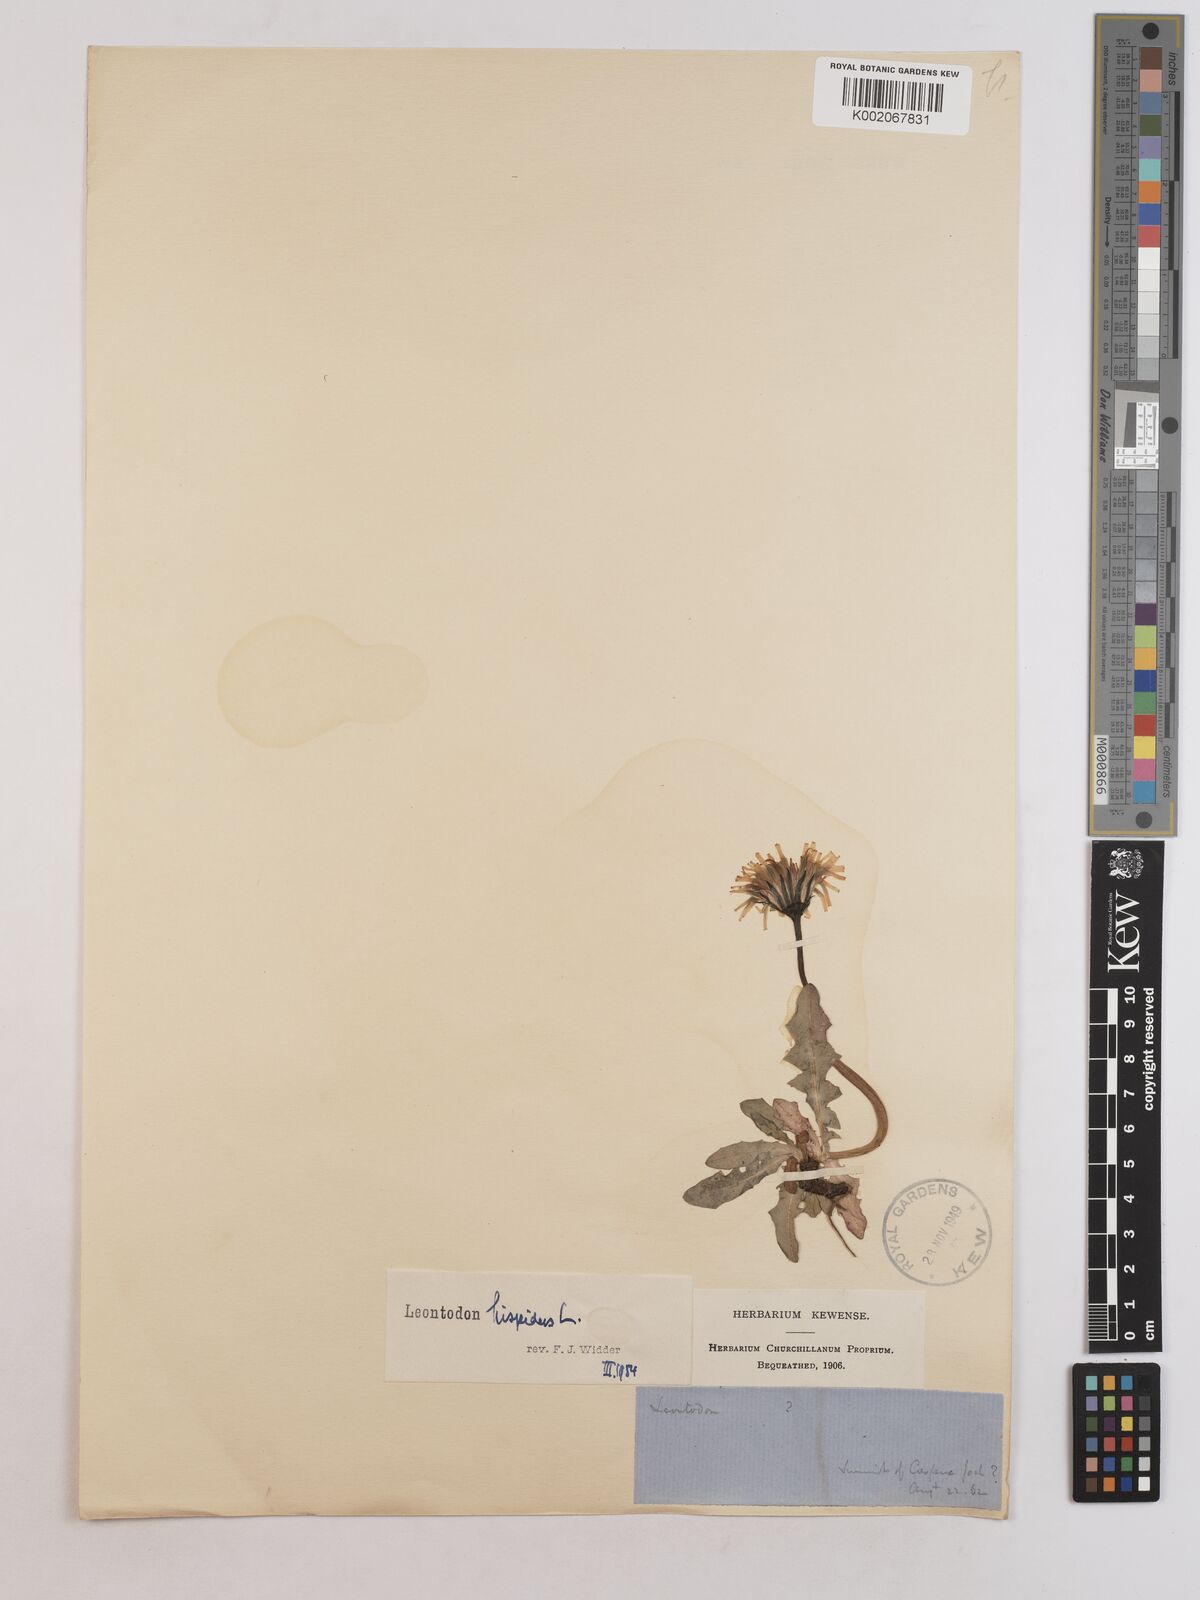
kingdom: Plantae
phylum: Tracheophyta
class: Magnoliopsida
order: Asterales
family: Asteraceae
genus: Leontodon
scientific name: Leontodon hispidus
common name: Rough hawkbit
